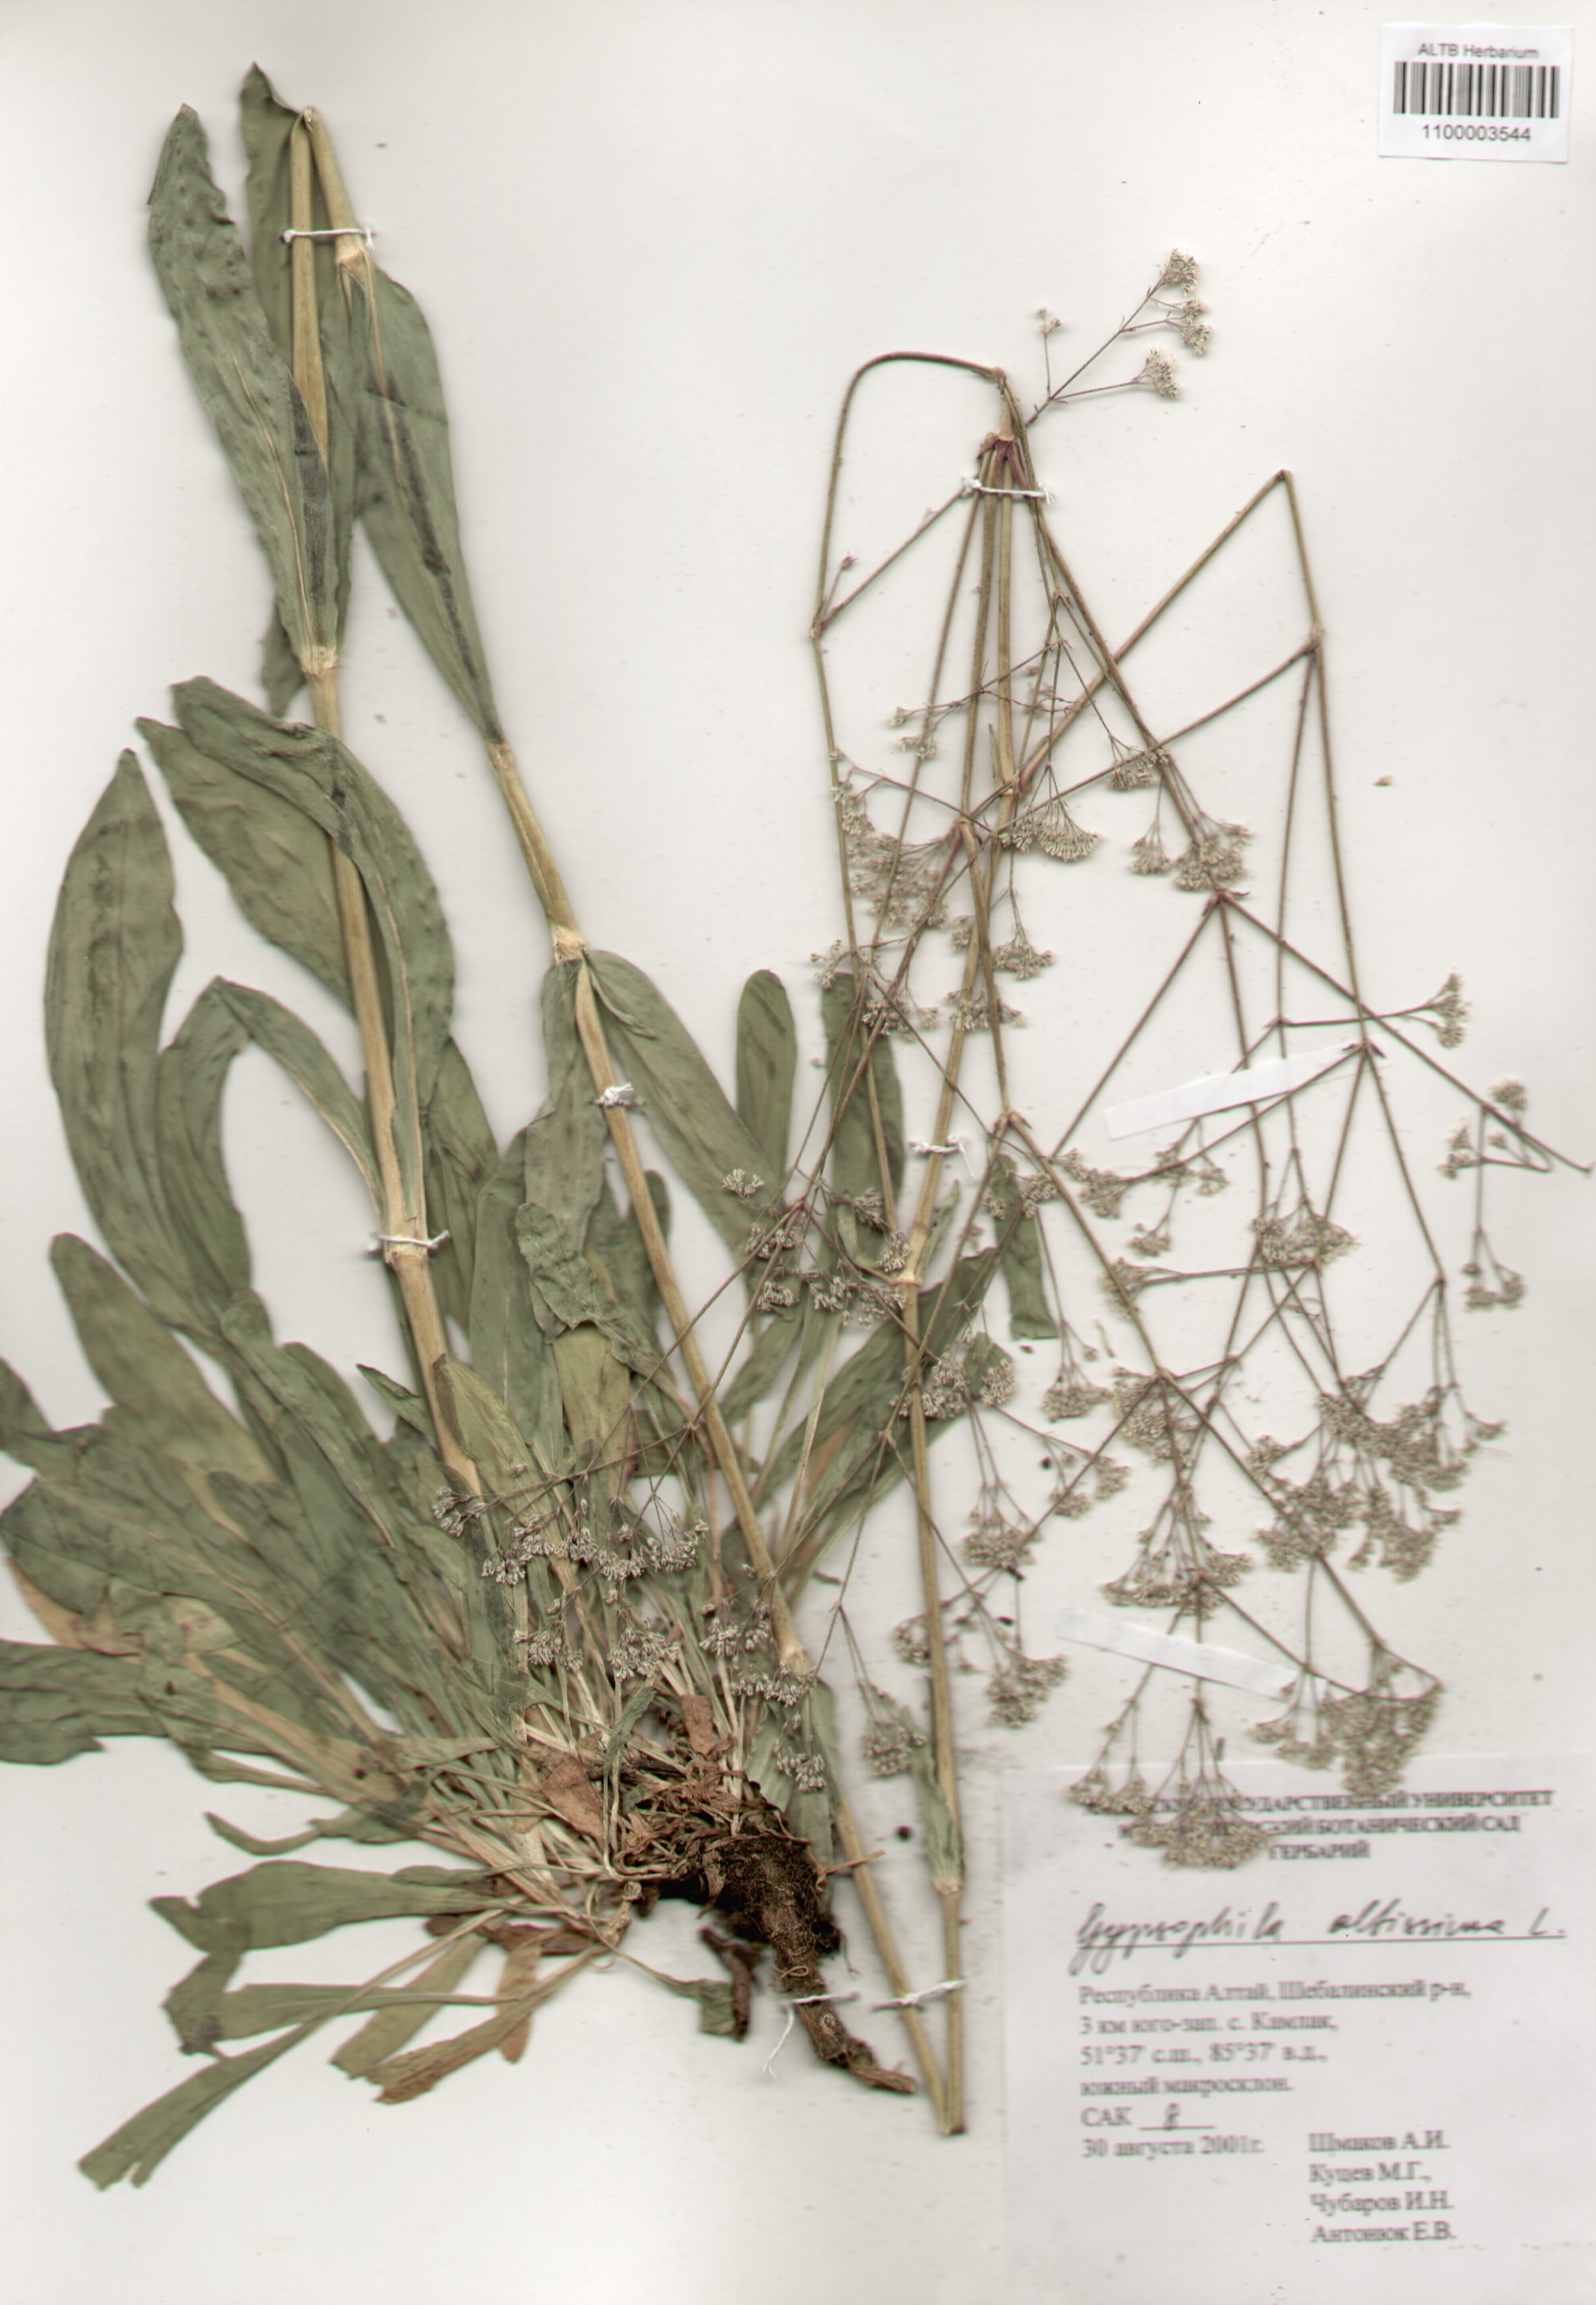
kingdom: Plantae
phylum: Tracheophyta
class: Magnoliopsida
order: Caryophyllales
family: Caryophyllaceae
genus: Gypsophila
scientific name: Gypsophila altissima
